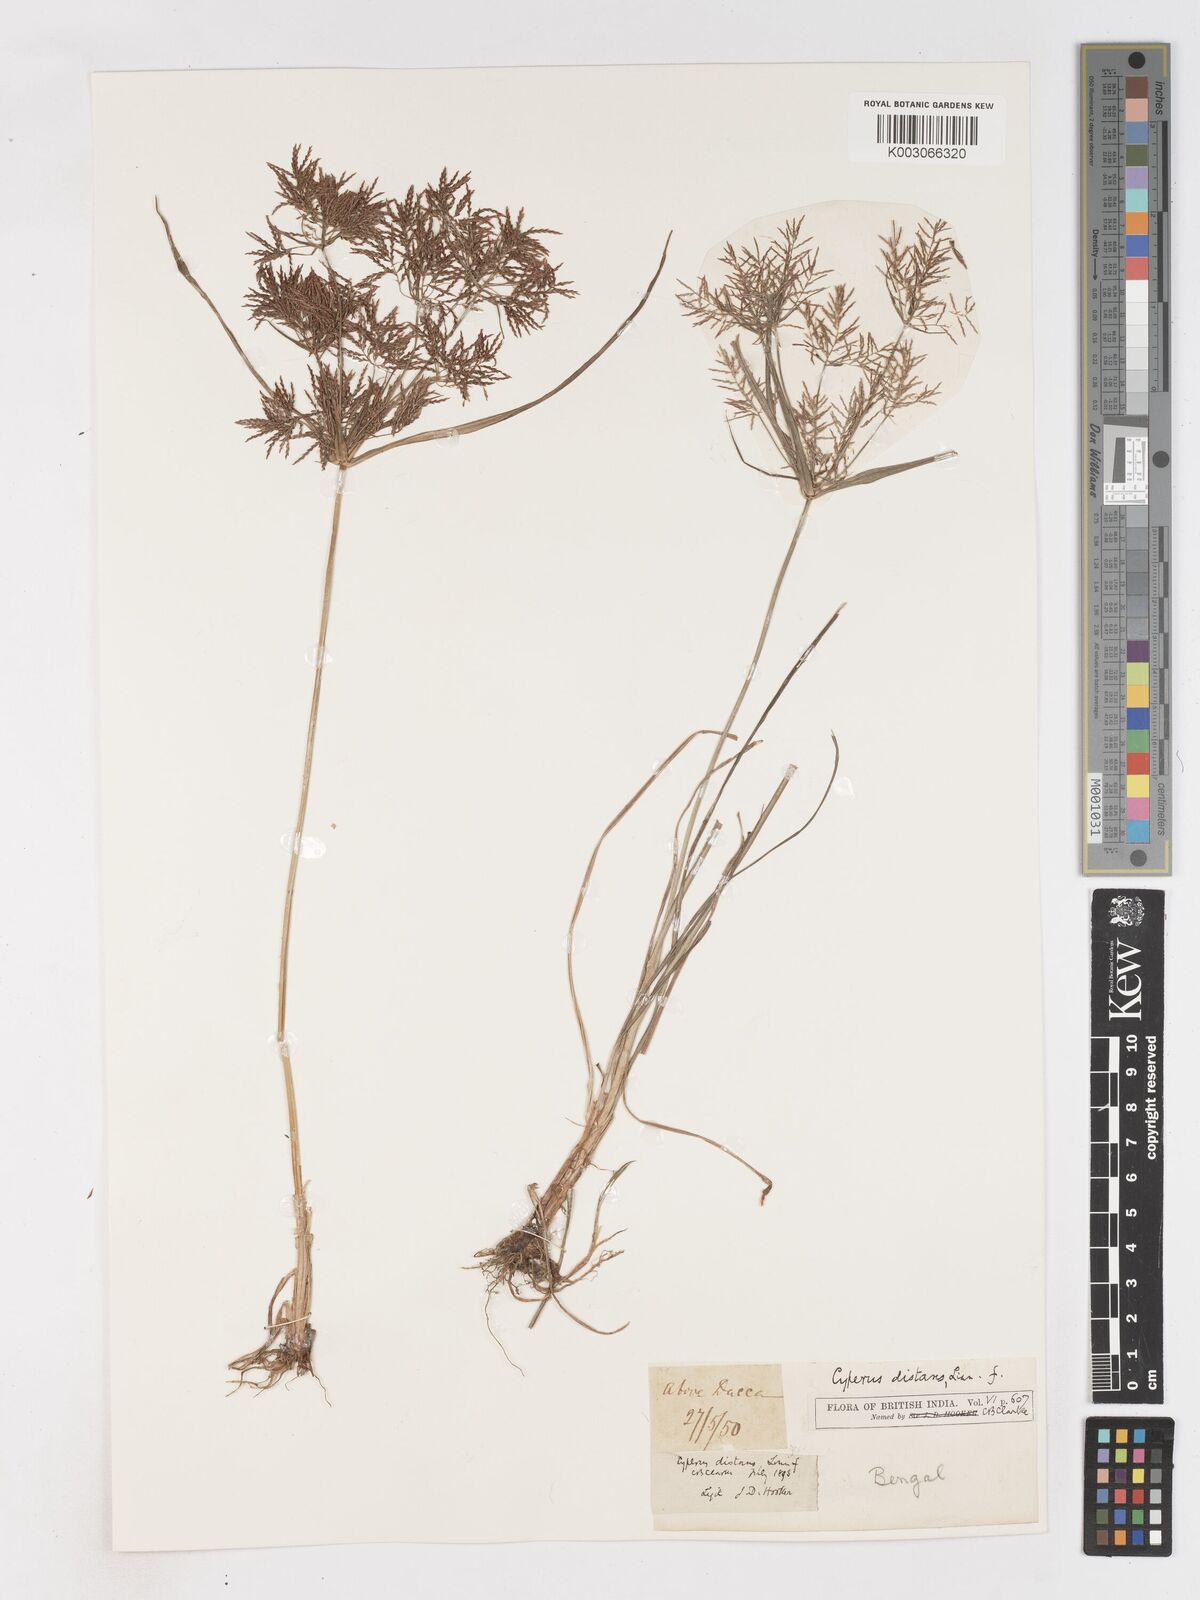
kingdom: Plantae
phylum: Tracheophyta
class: Liliopsida
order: Poales
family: Cyperaceae
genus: Cyperus
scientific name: Cyperus distans
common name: Slender cyperus
